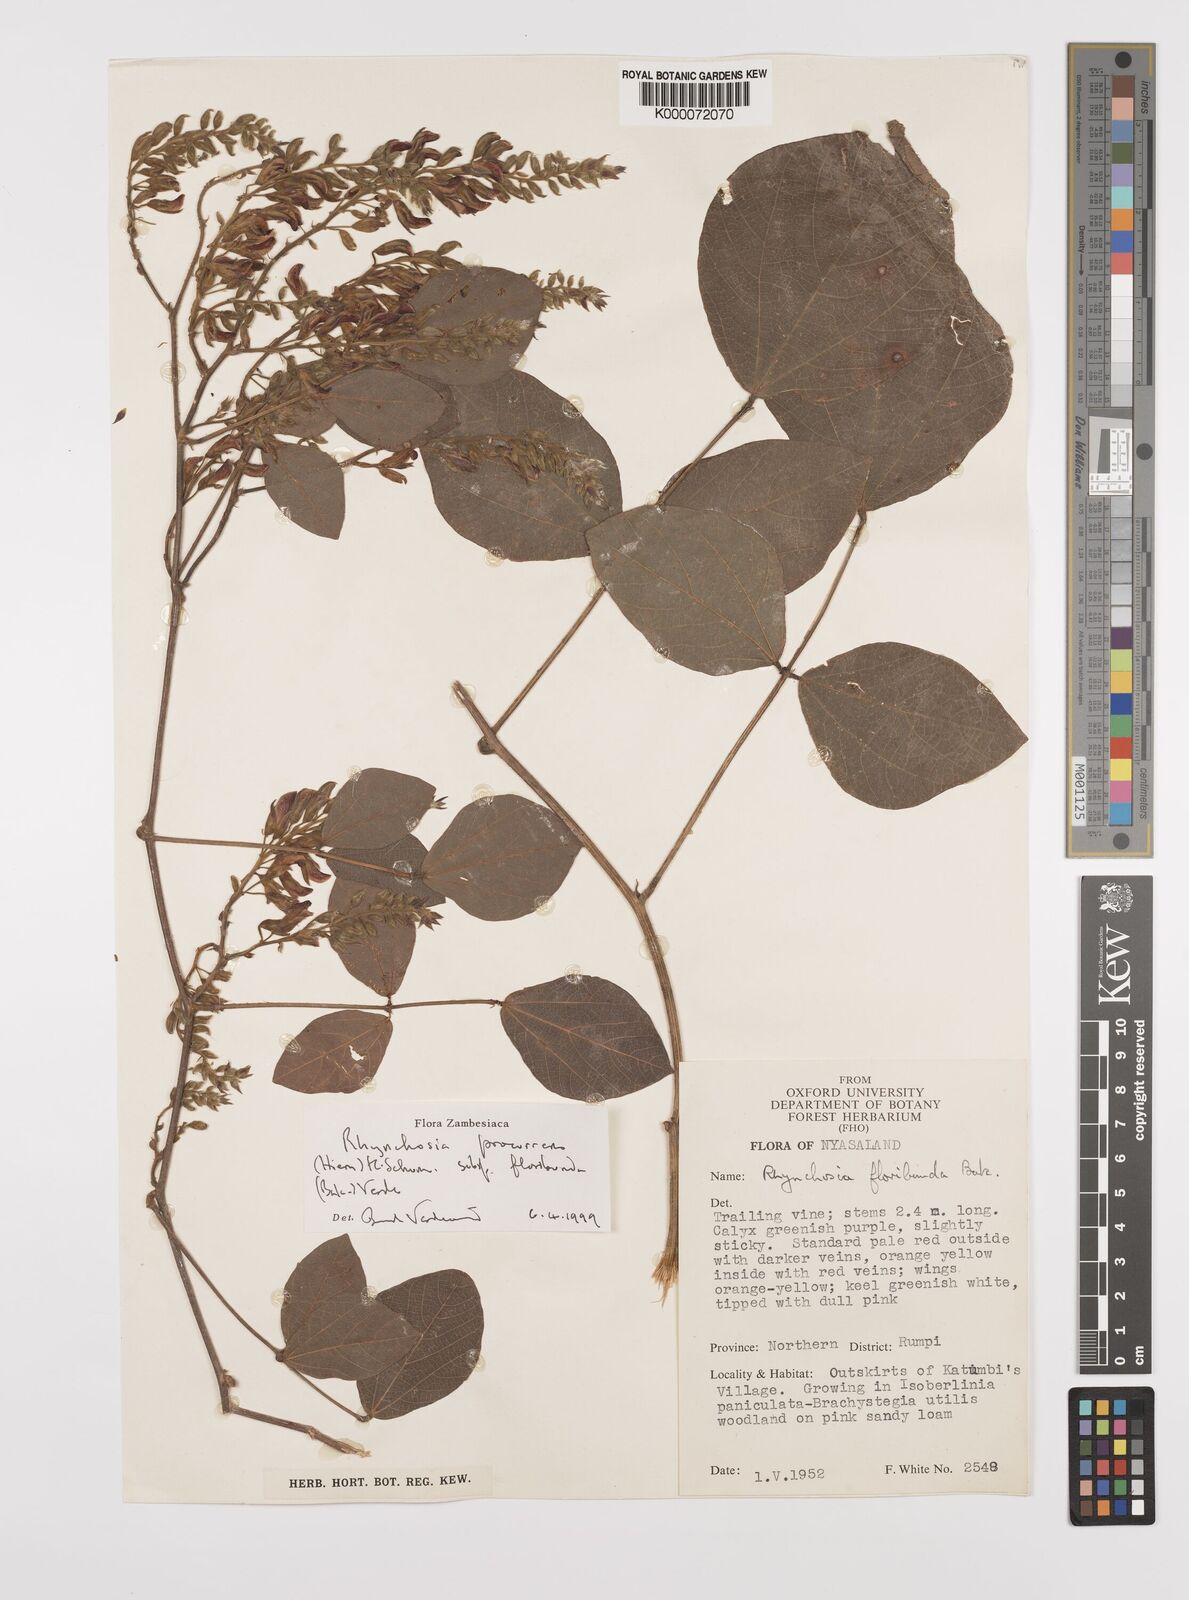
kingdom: Plantae
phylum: Tracheophyta
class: Magnoliopsida
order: Fabales
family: Fabaceae
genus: Rhynchosia
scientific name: Rhynchosia procurrens
